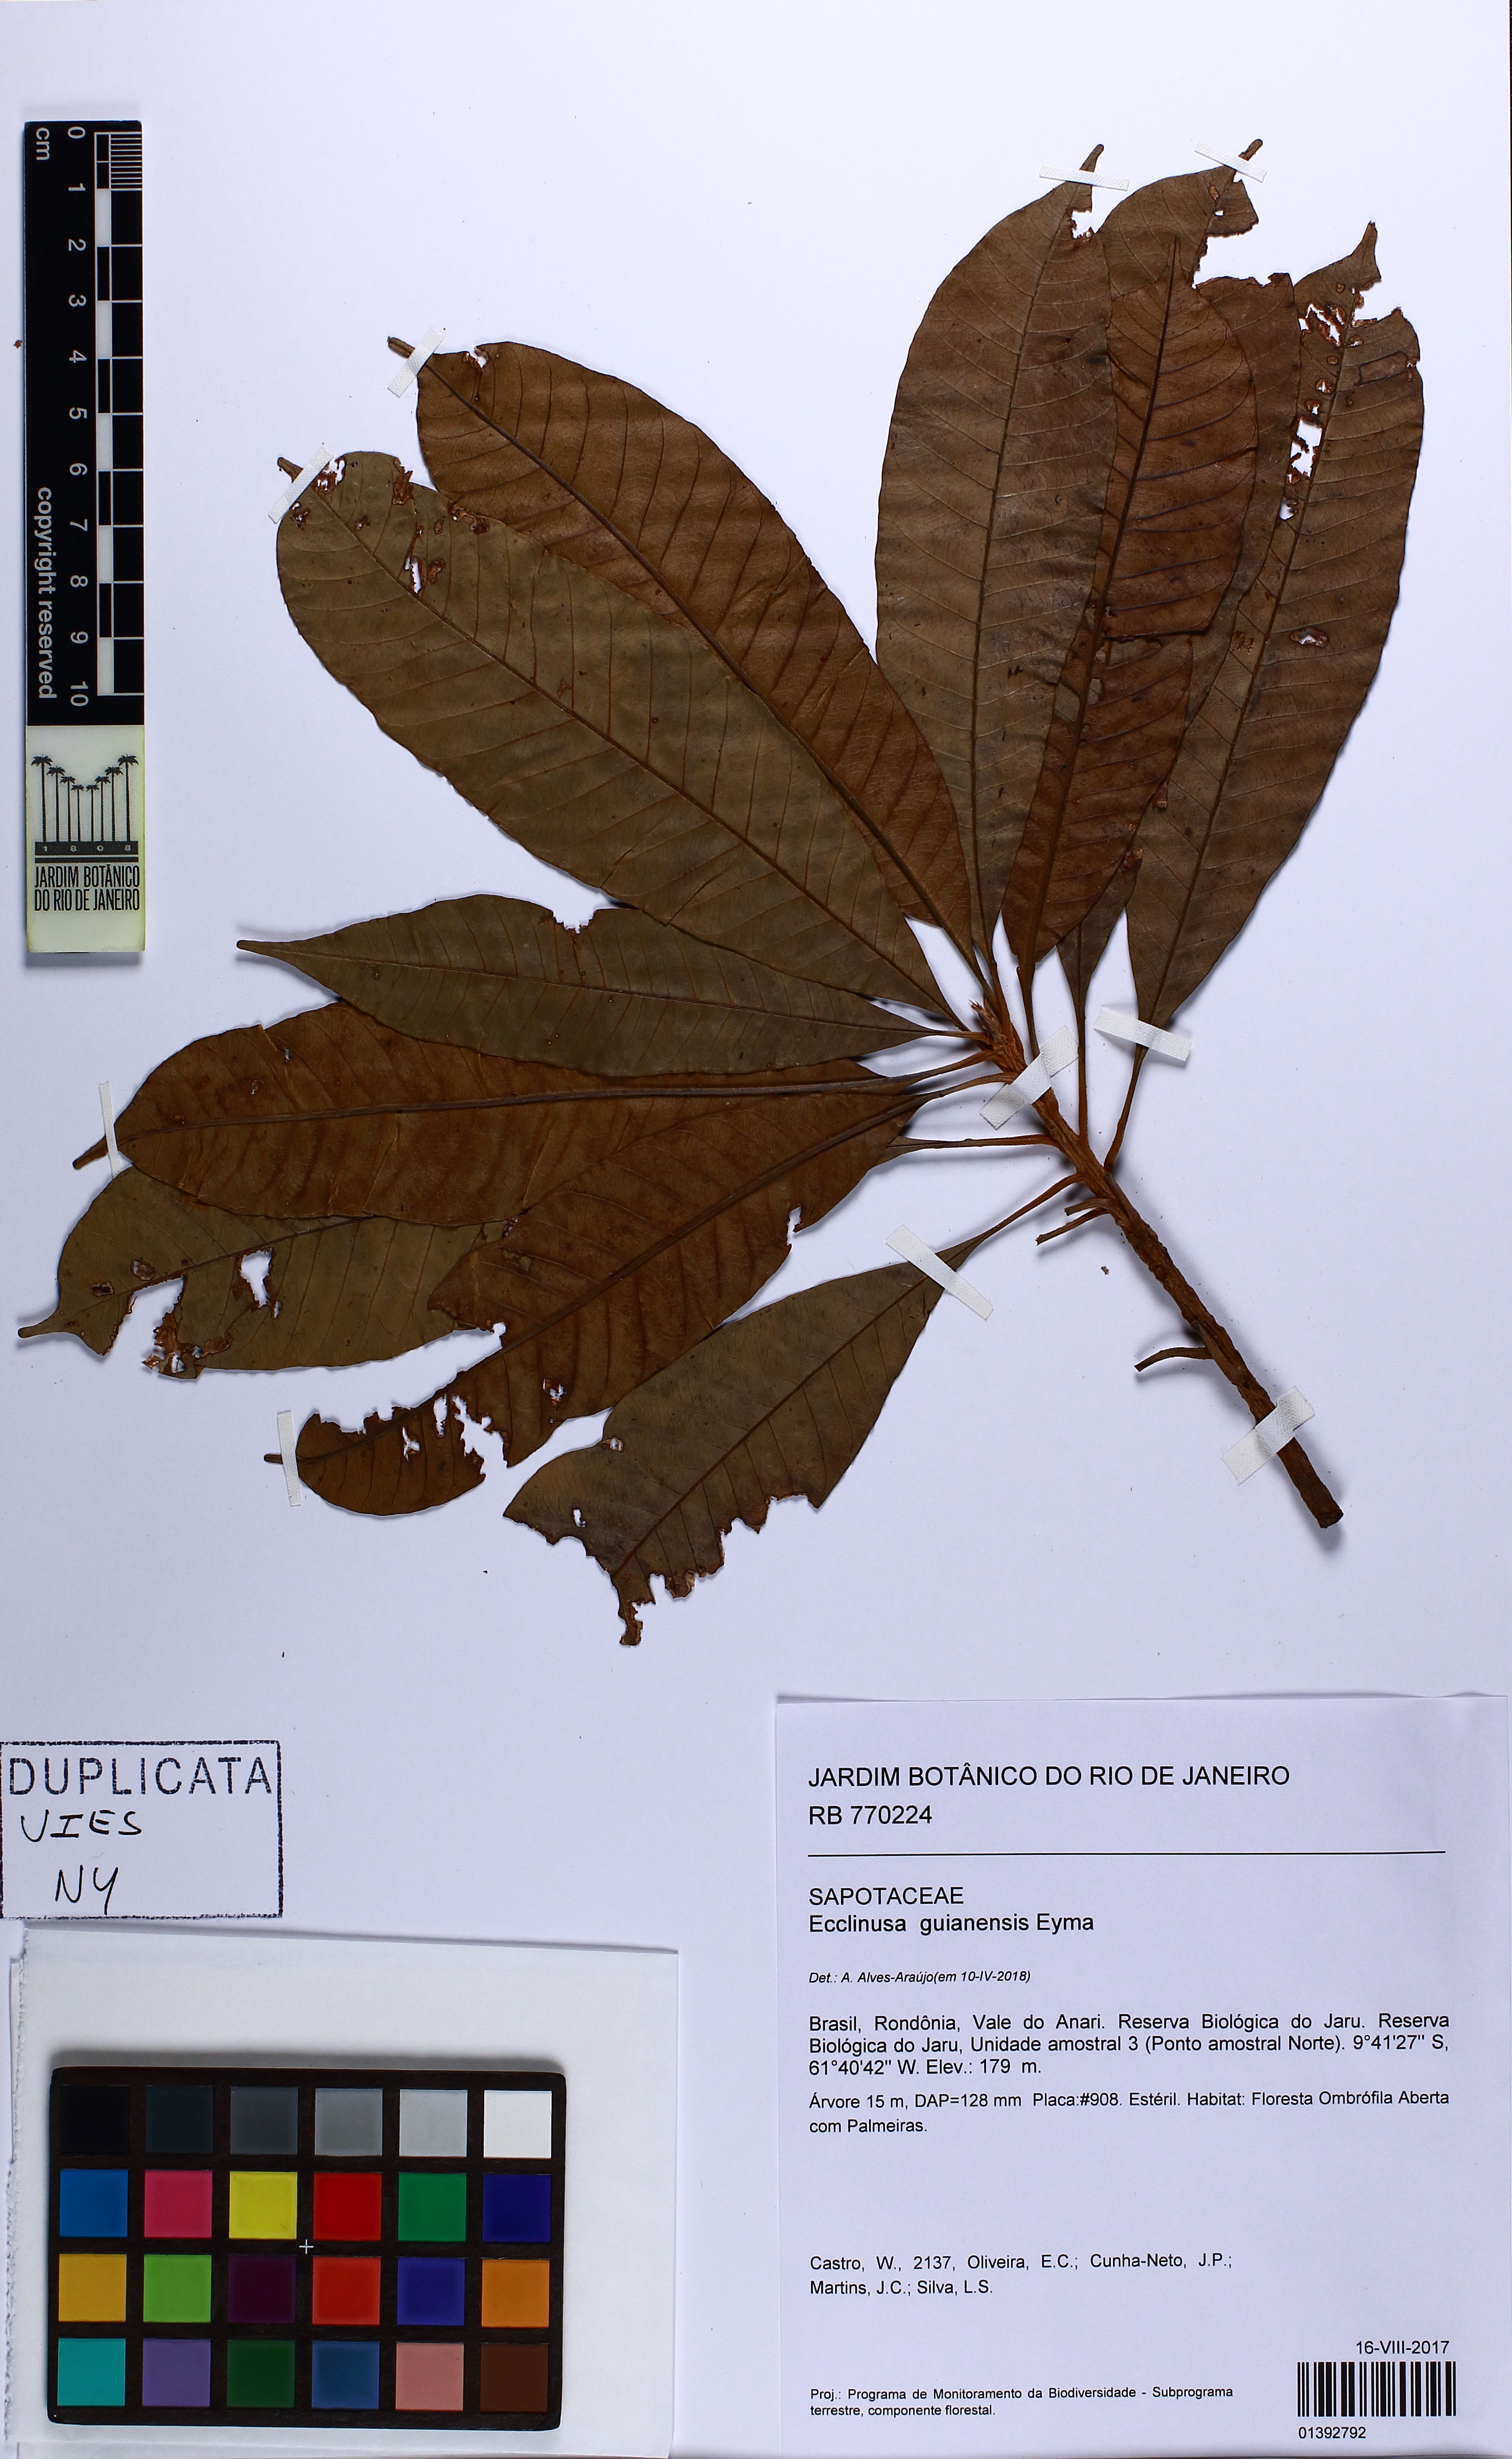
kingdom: Plantae
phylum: Tracheophyta
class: Magnoliopsida
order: Ericales
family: Sapotaceae
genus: Ecclinusa
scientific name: Ecclinusa guianensis
